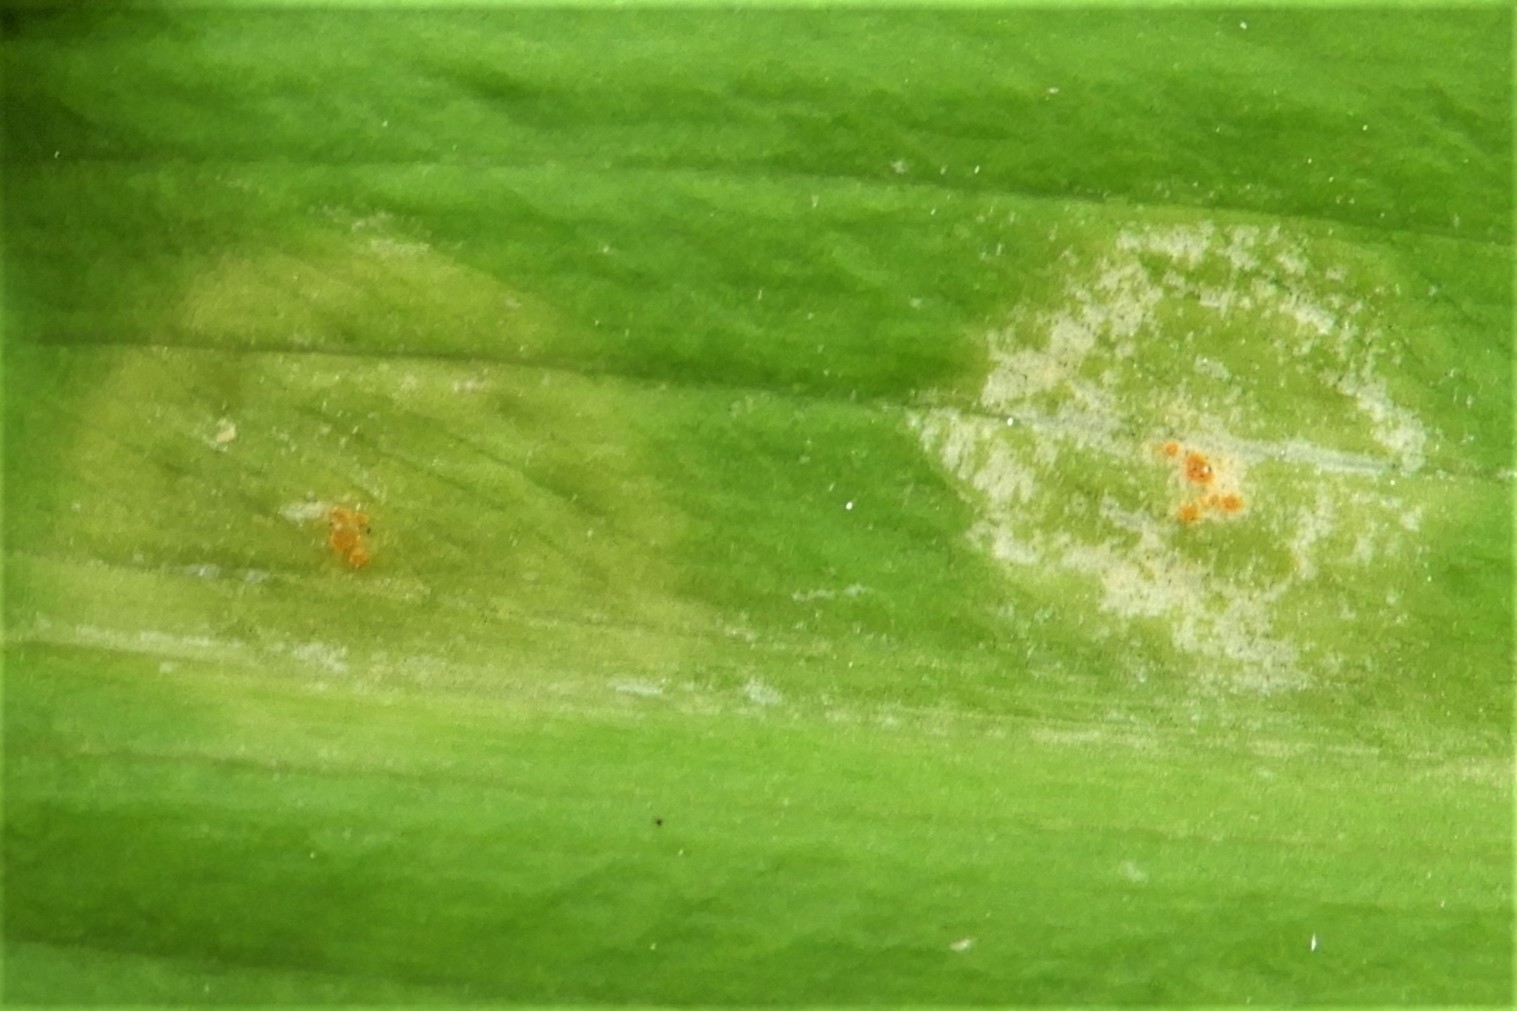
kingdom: Fungi
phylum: Basidiomycota
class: Pucciniomycetes
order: Pucciniales
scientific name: Pucciniales
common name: rustsvampeordenen
